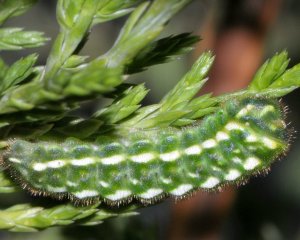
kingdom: Animalia
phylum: Arthropoda
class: Insecta
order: Lepidoptera
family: Lycaenidae
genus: Mitoura
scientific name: Mitoura gryneus
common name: Juniper Hairstreak
